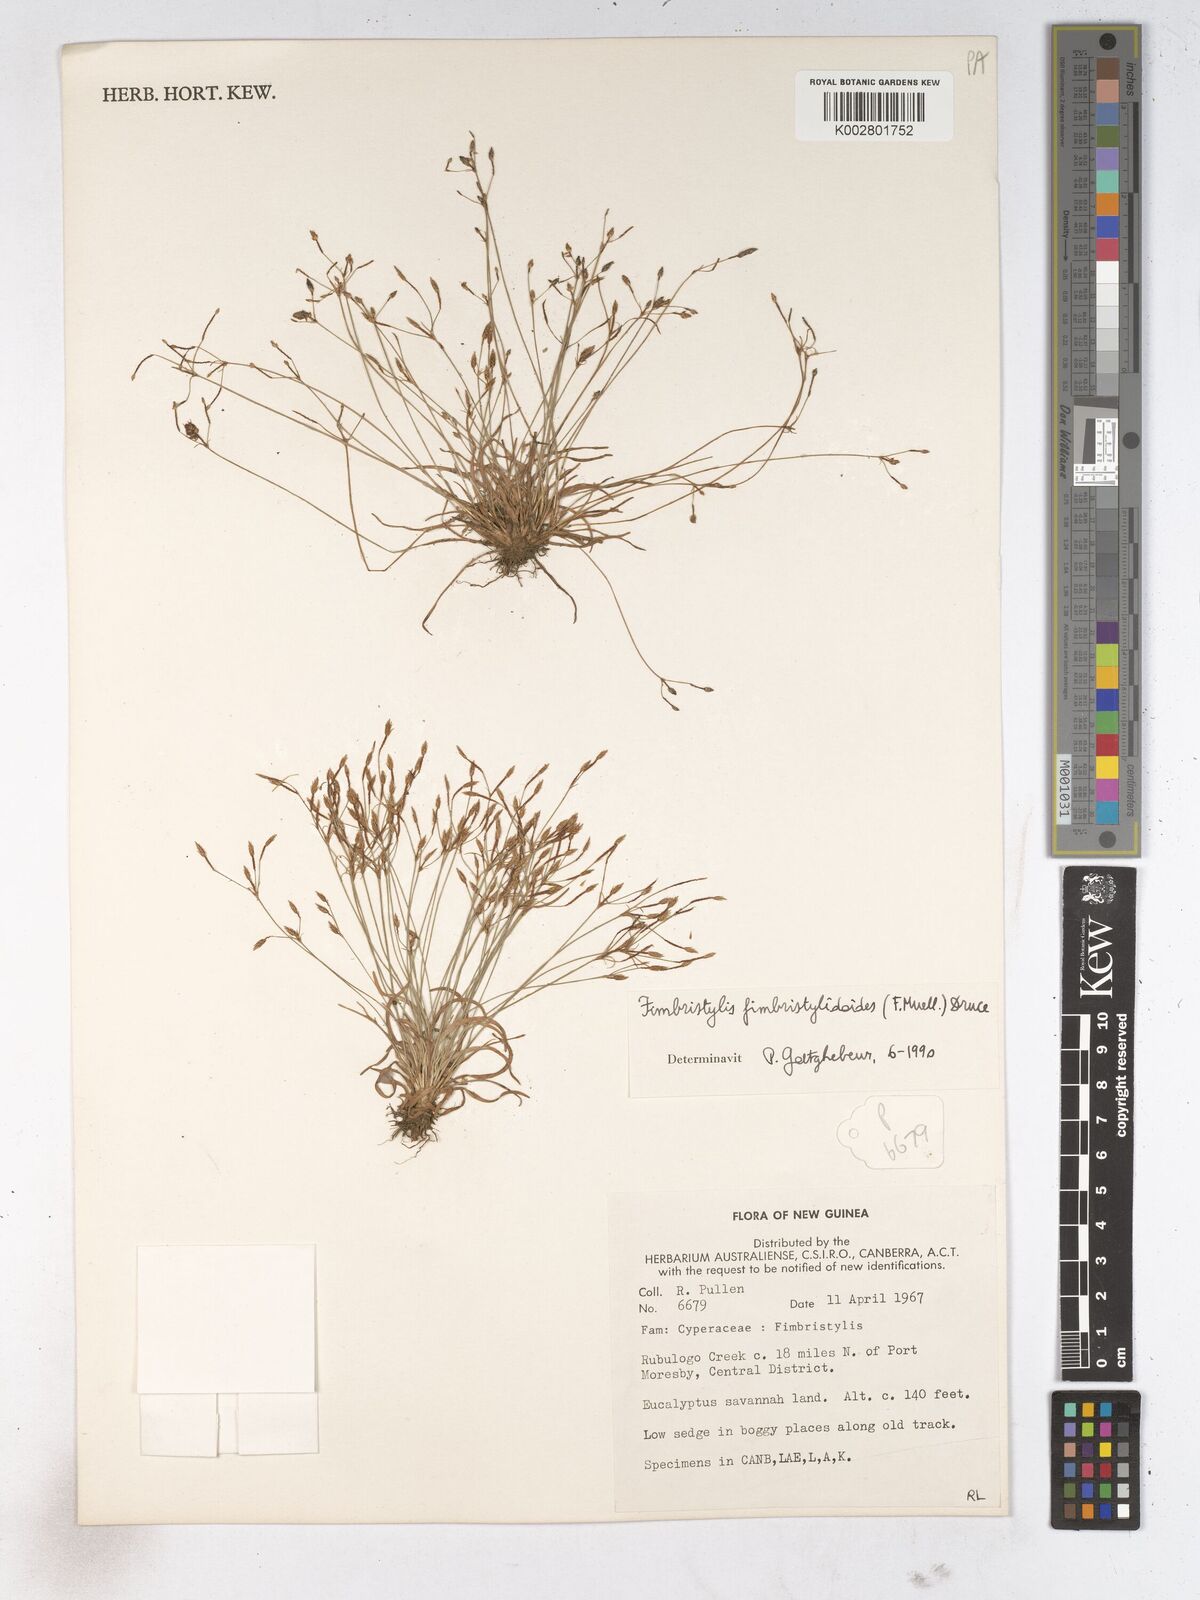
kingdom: Plantae
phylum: Tracheophyta
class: Liliopsida
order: Poales
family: Cyperaceae
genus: Fimbristylis
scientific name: Fimbristylis fimbristyloides
